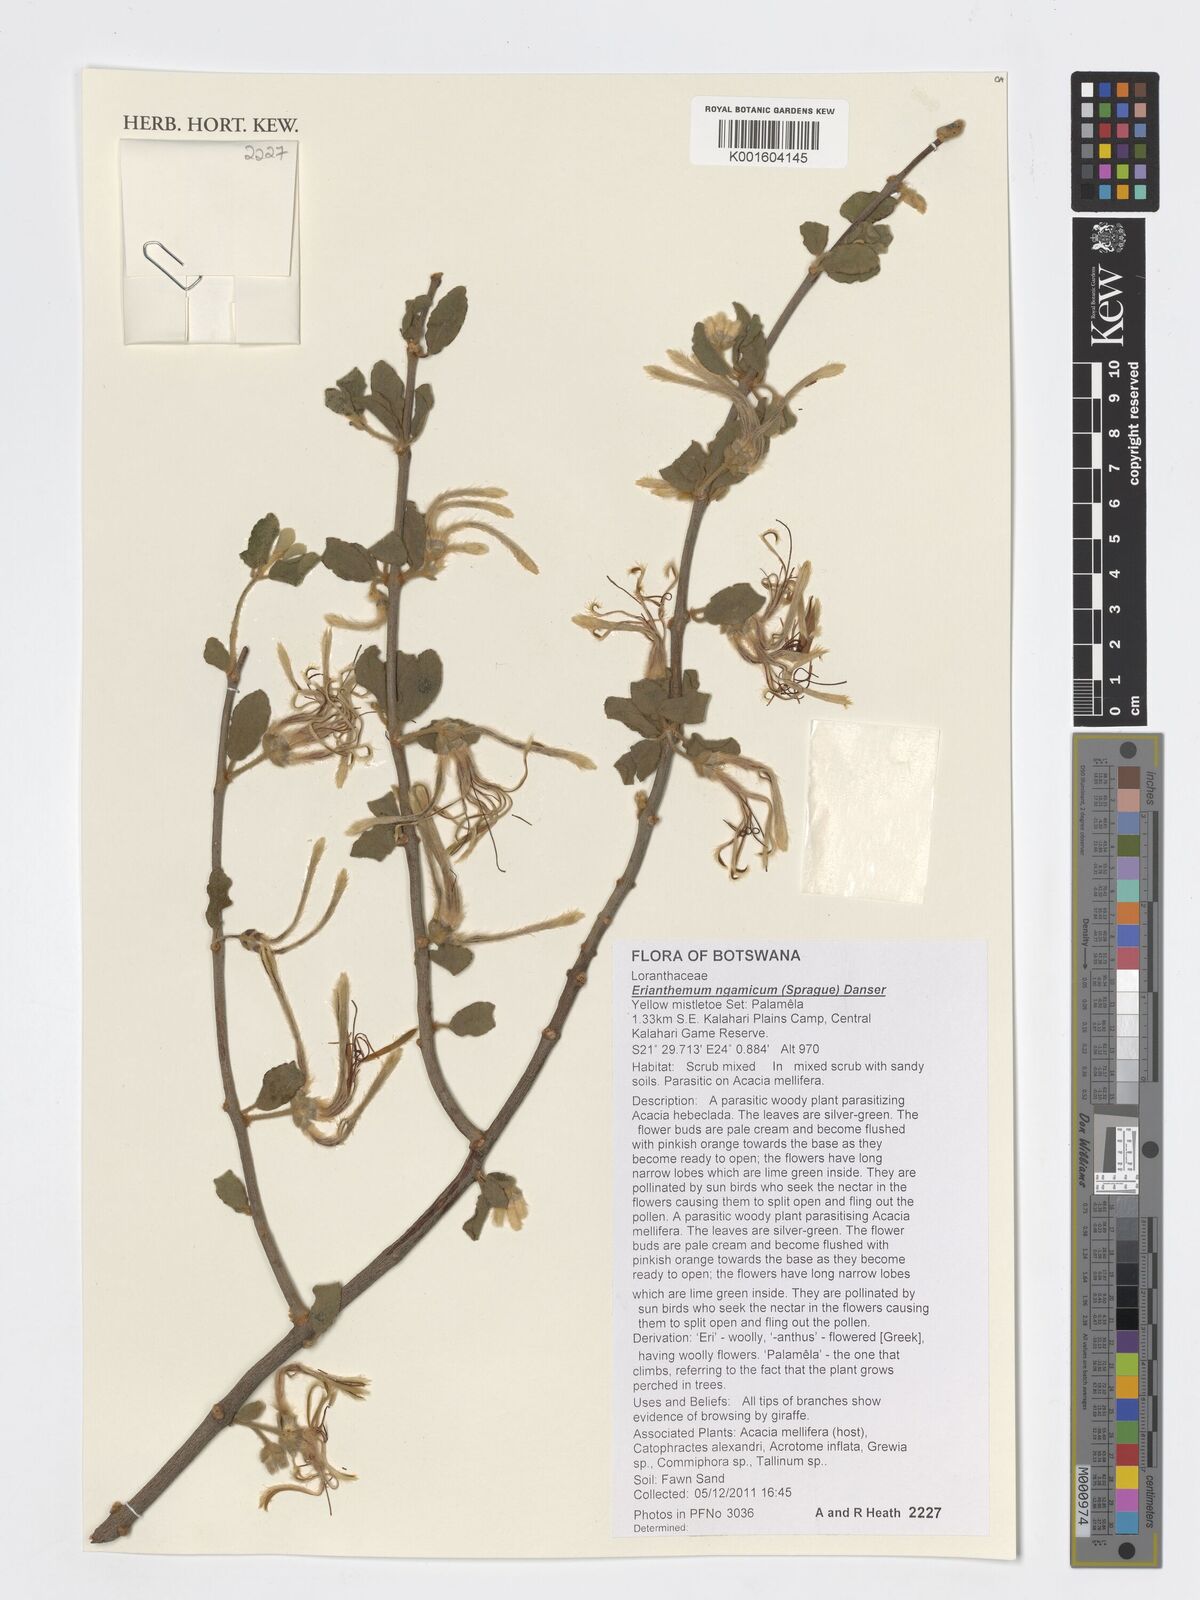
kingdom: Plantae
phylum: Tracheophyta
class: Magnoliopsida
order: Santalales
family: Loranthaceae
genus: Erianthemum
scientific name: Erianthemum ngamicum
